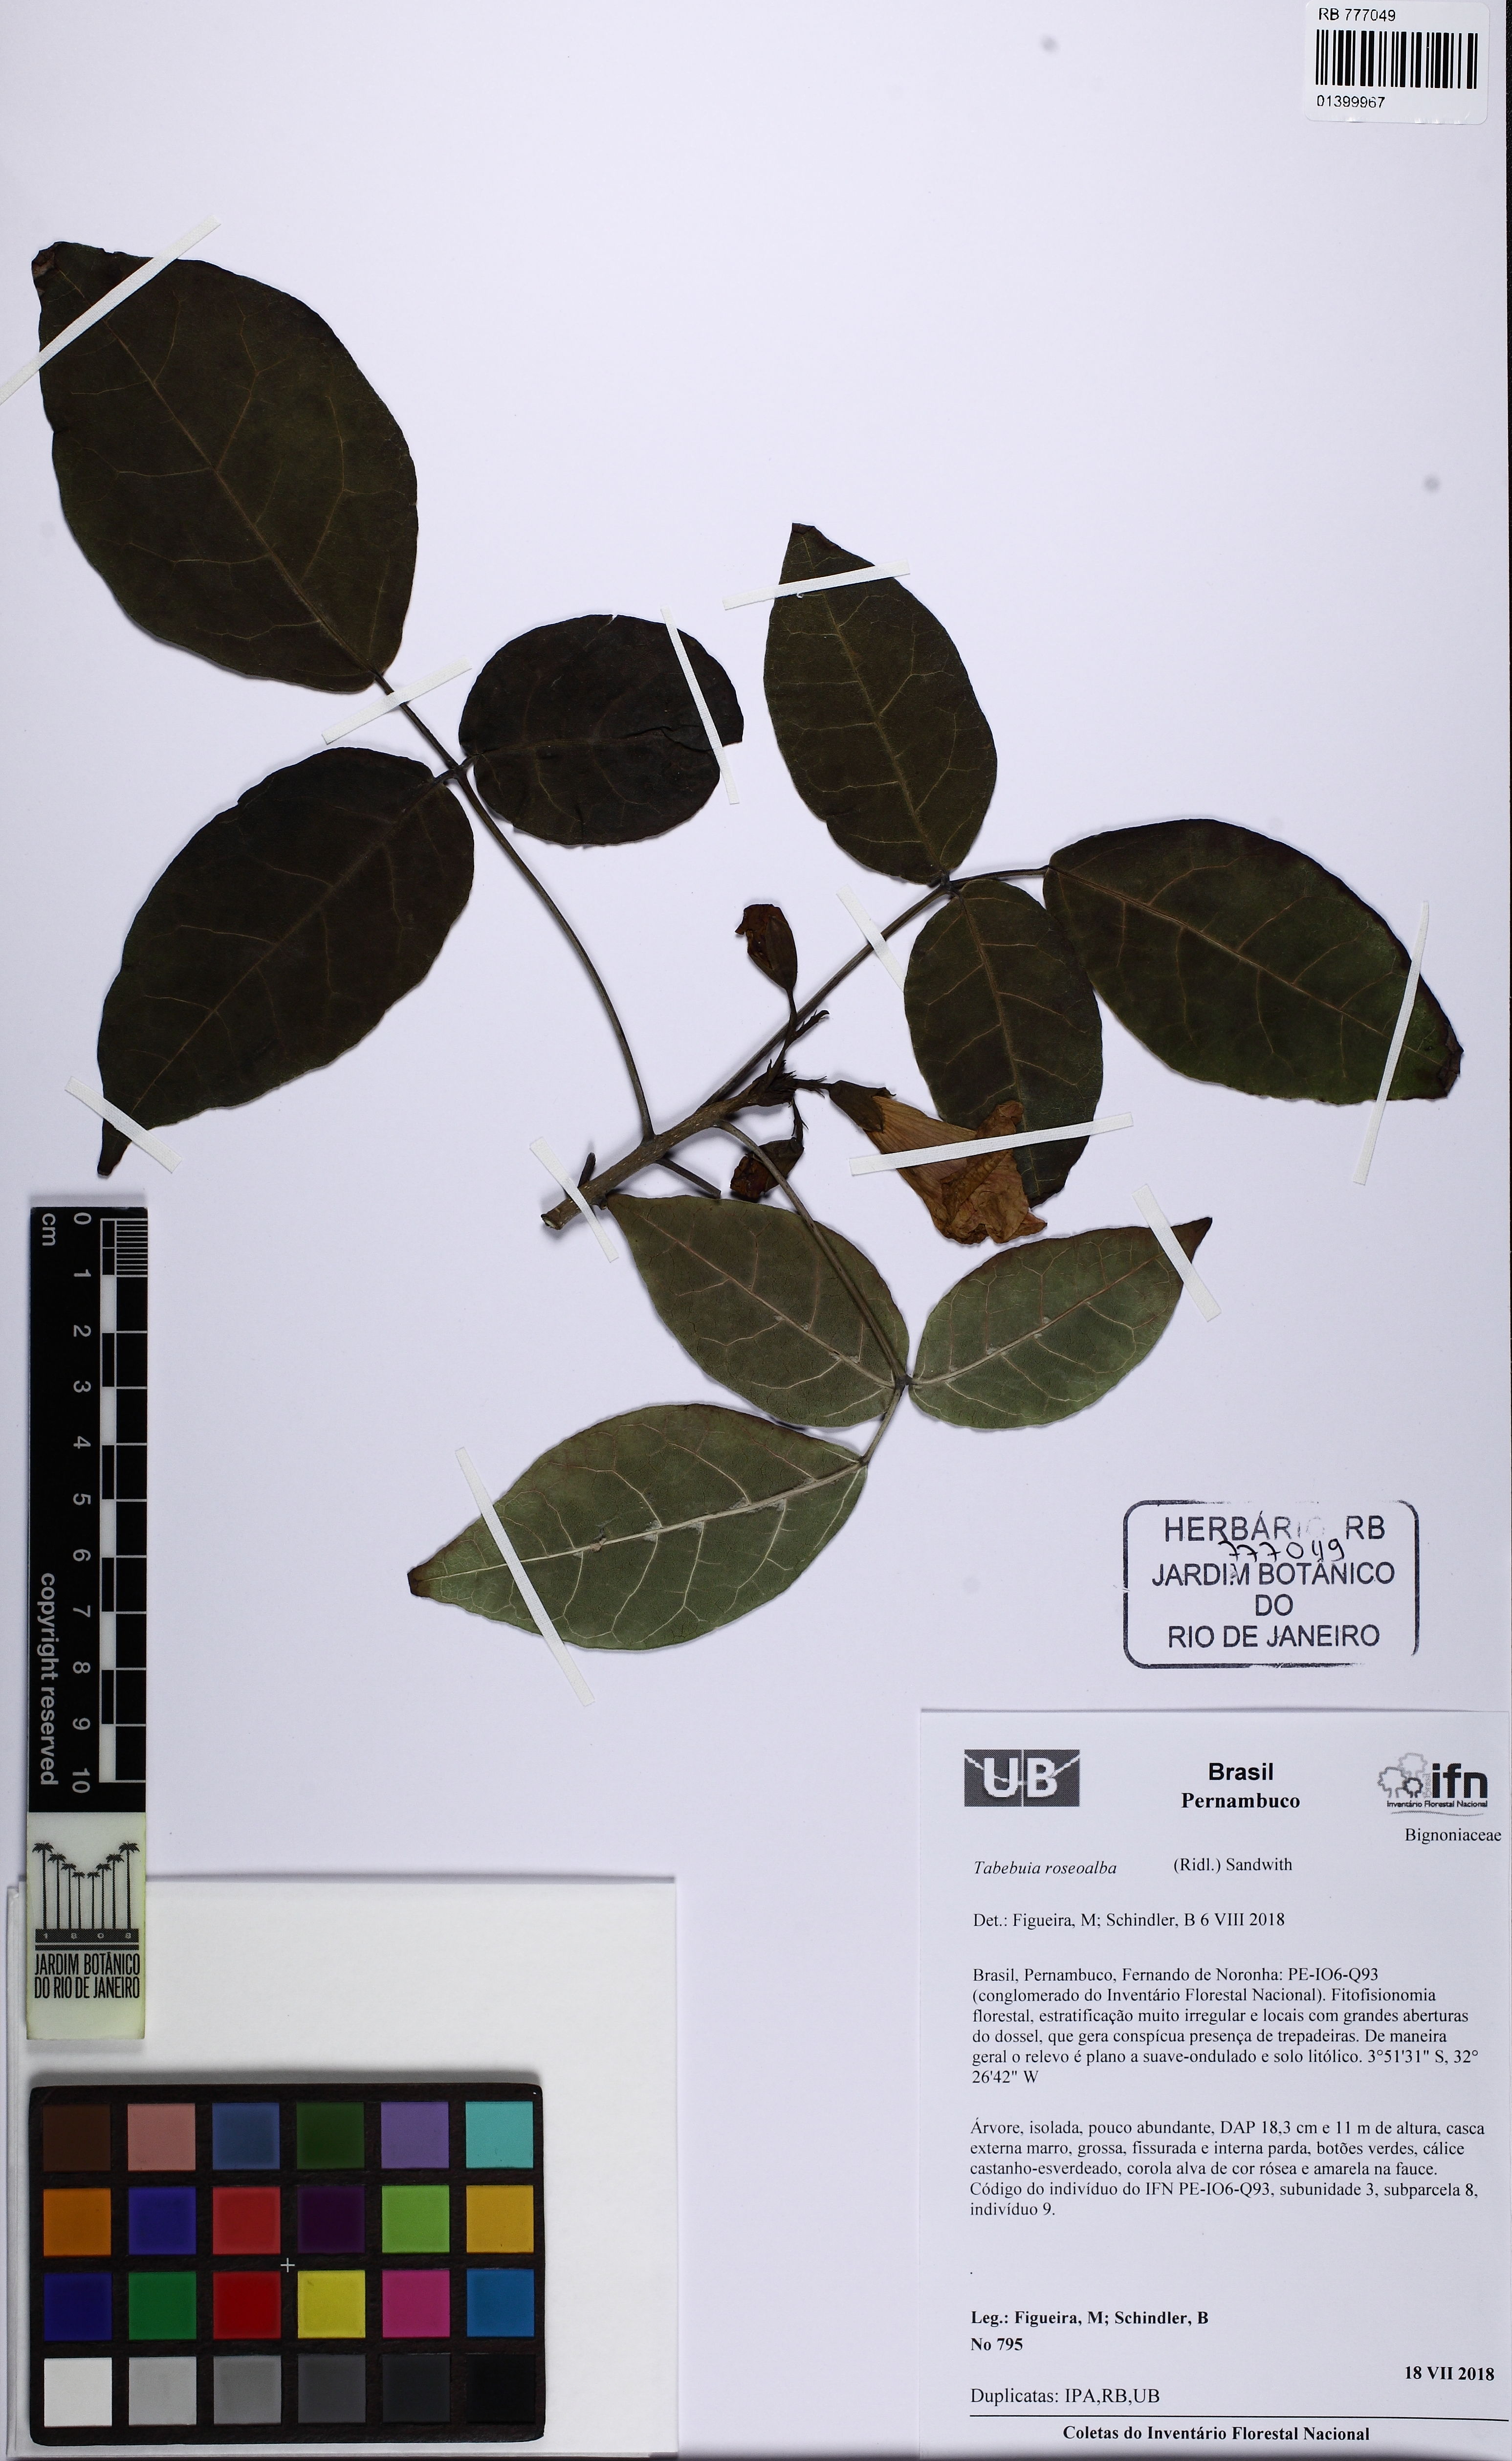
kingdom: Plantae
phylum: Tracheophyta
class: Magnoliopsida
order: Lamiales
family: Bignoniaceae
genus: Tabebuia
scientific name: Tabebuia roseoalba
